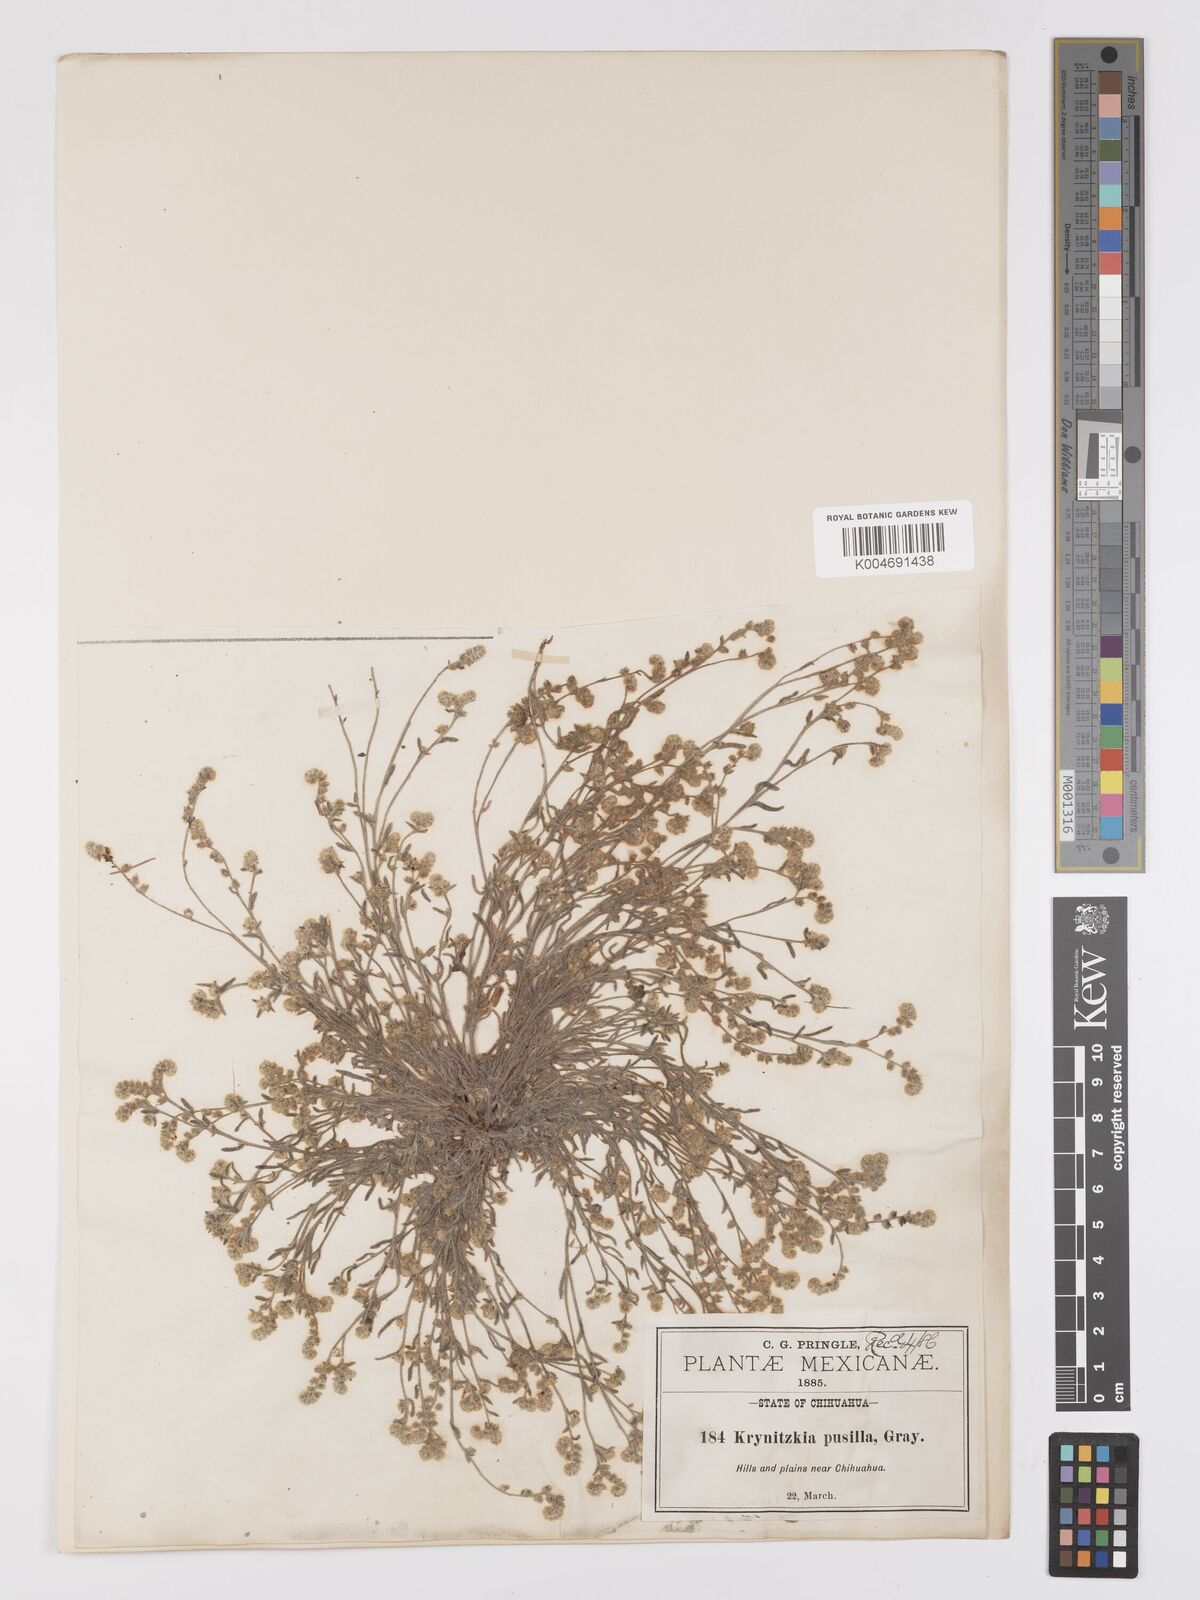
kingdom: Plantae
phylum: Tracheophyta
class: Magnoliopsida
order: Boraginales
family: Boraginaceae
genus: Johnstonella
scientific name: Johnstonella pusilla
